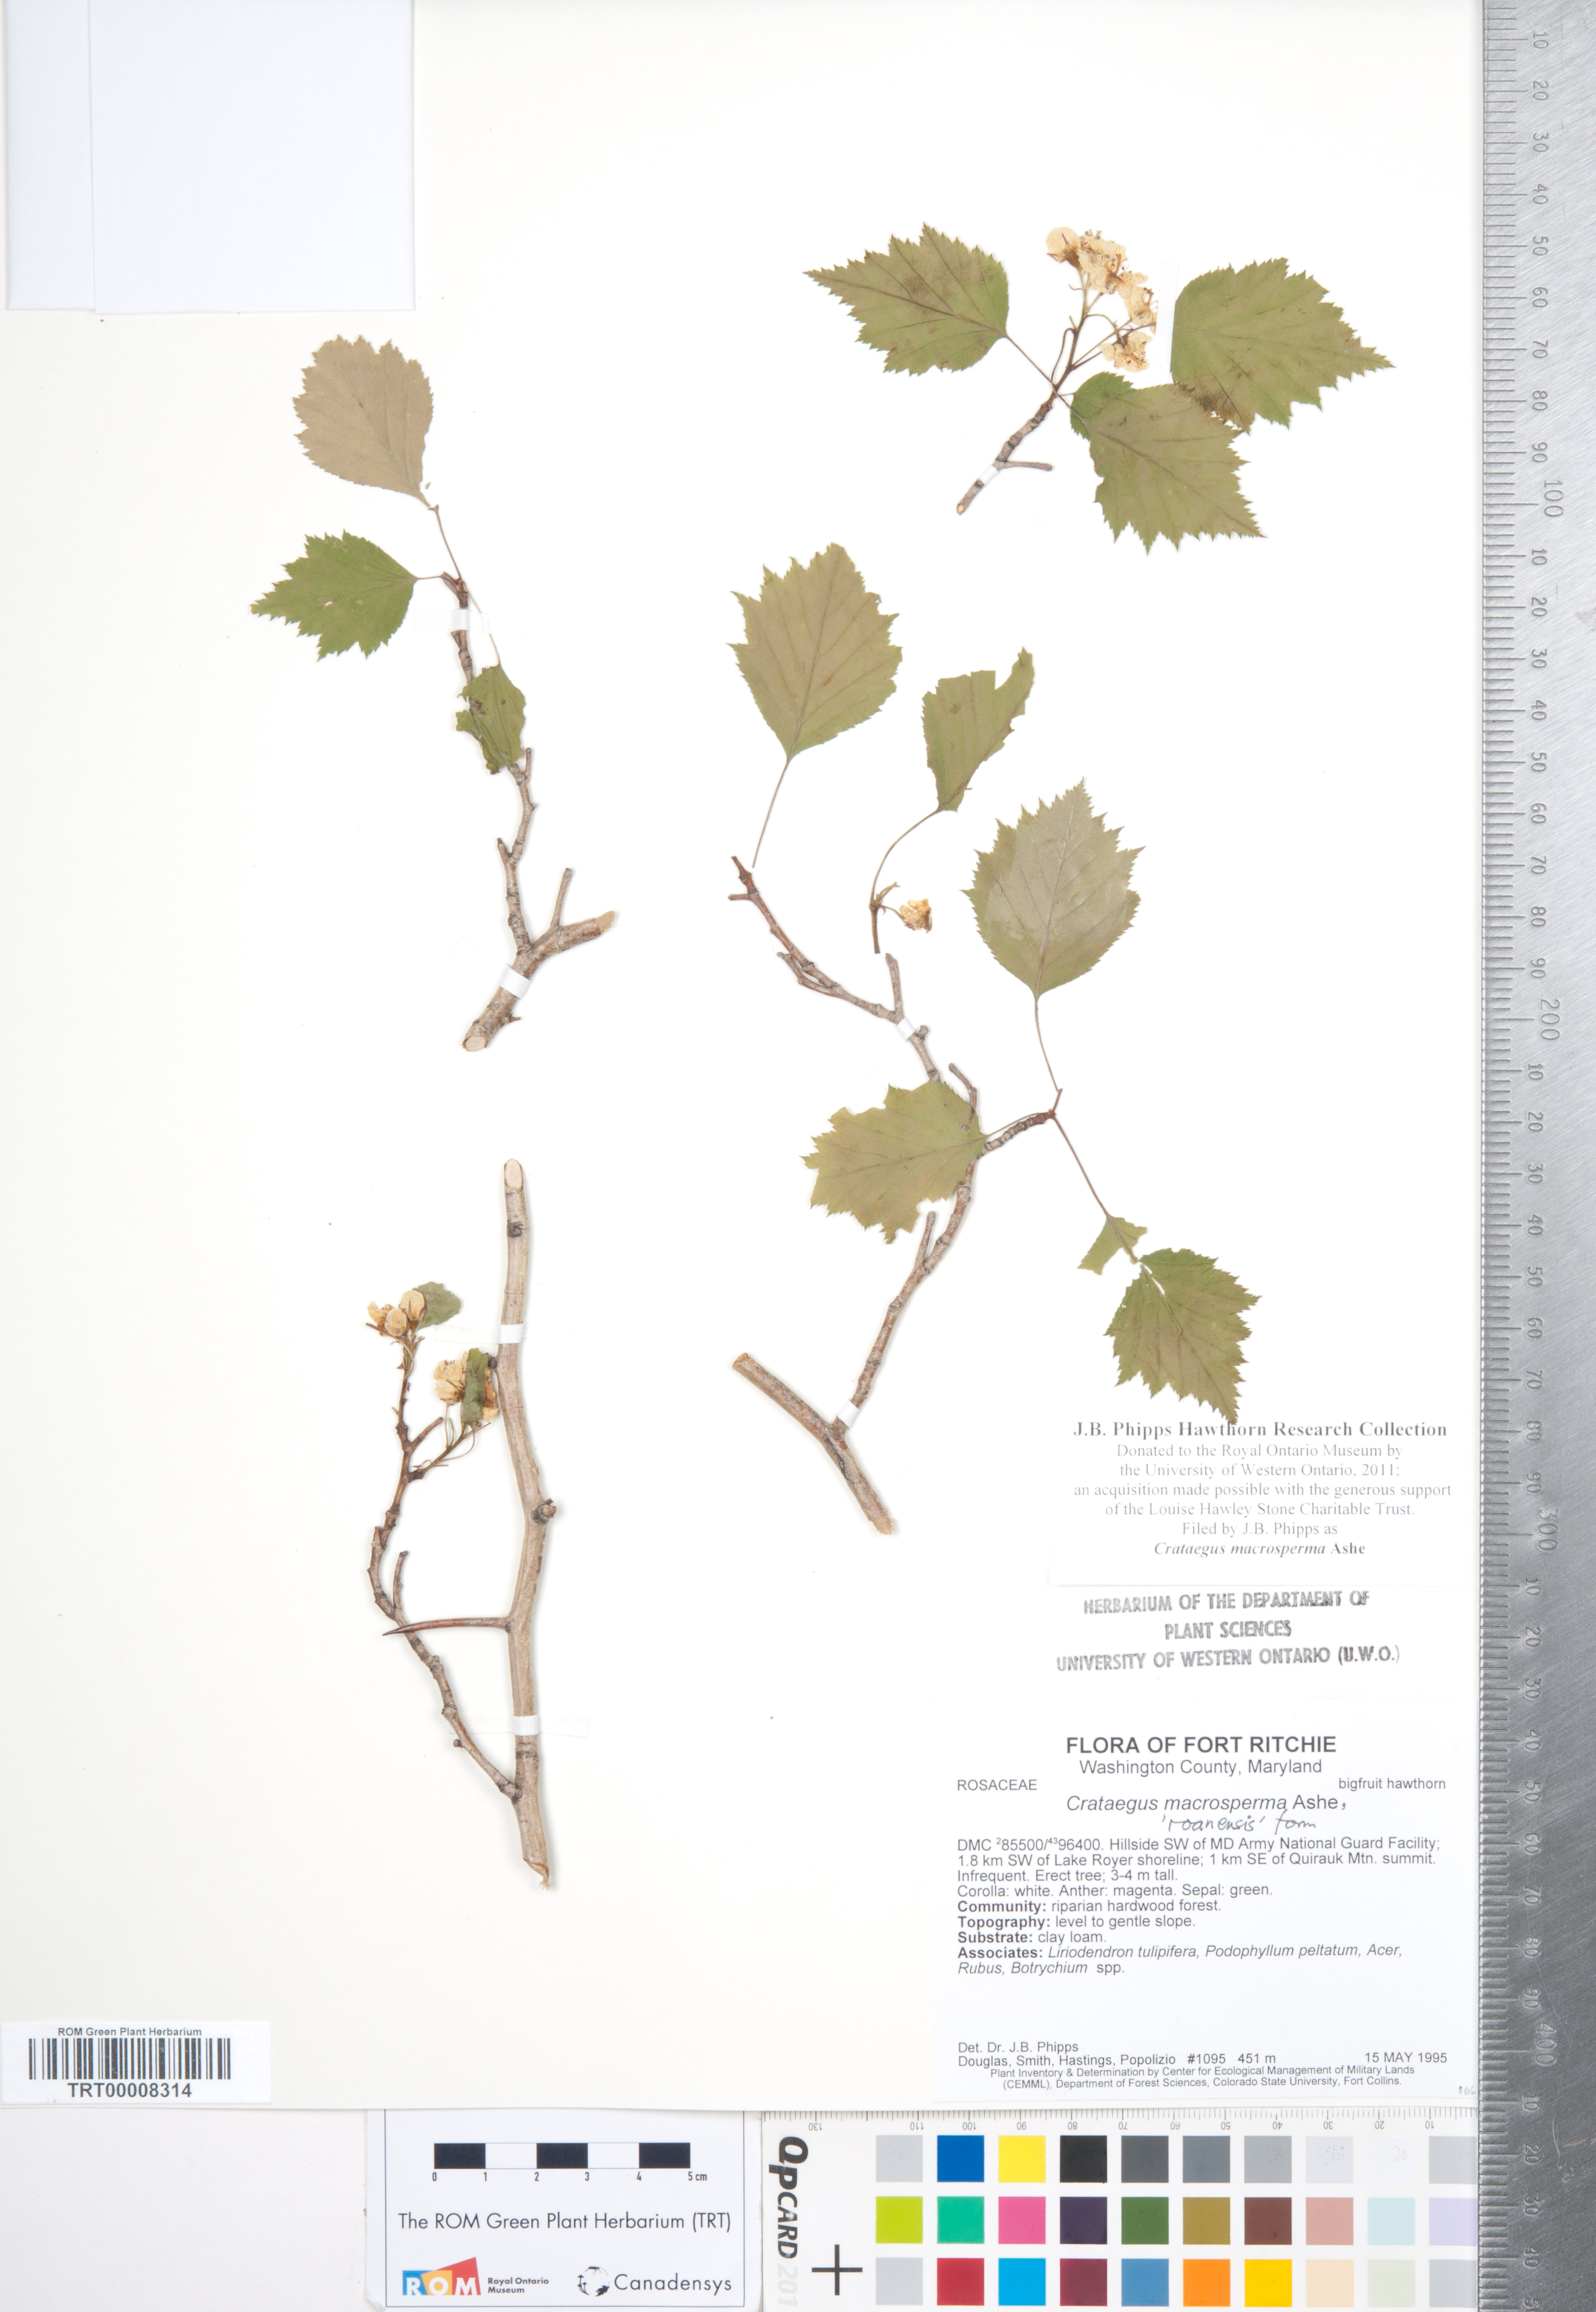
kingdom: Plantae
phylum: Tracheophyta
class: Magnoliopsida
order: Rosales
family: Rosaceae
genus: Crataegus
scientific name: Crataegus macrosperma
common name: Variable hawthorn
